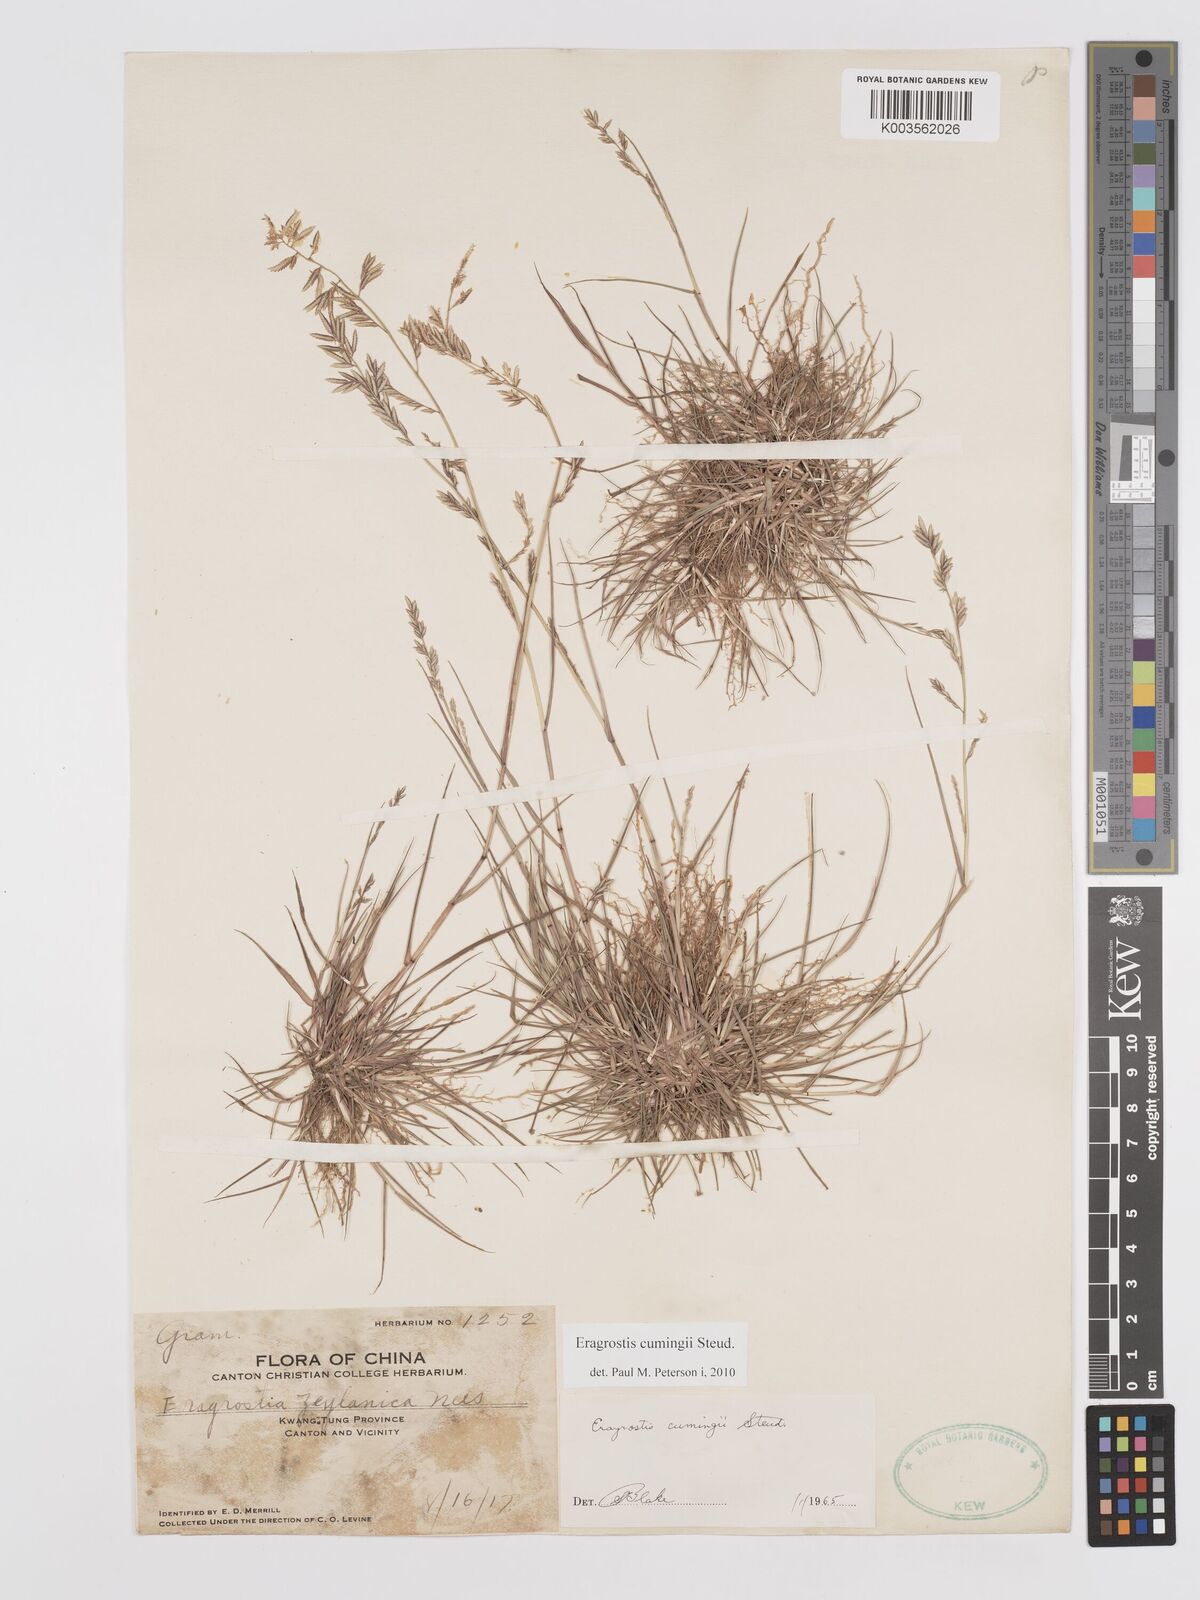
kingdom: Plantae
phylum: Tracheophyta
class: Liliopsida
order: Poales
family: Poaceae
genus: Eragrostis
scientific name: Eragrostis cumingii
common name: Cuming's lovegrass
